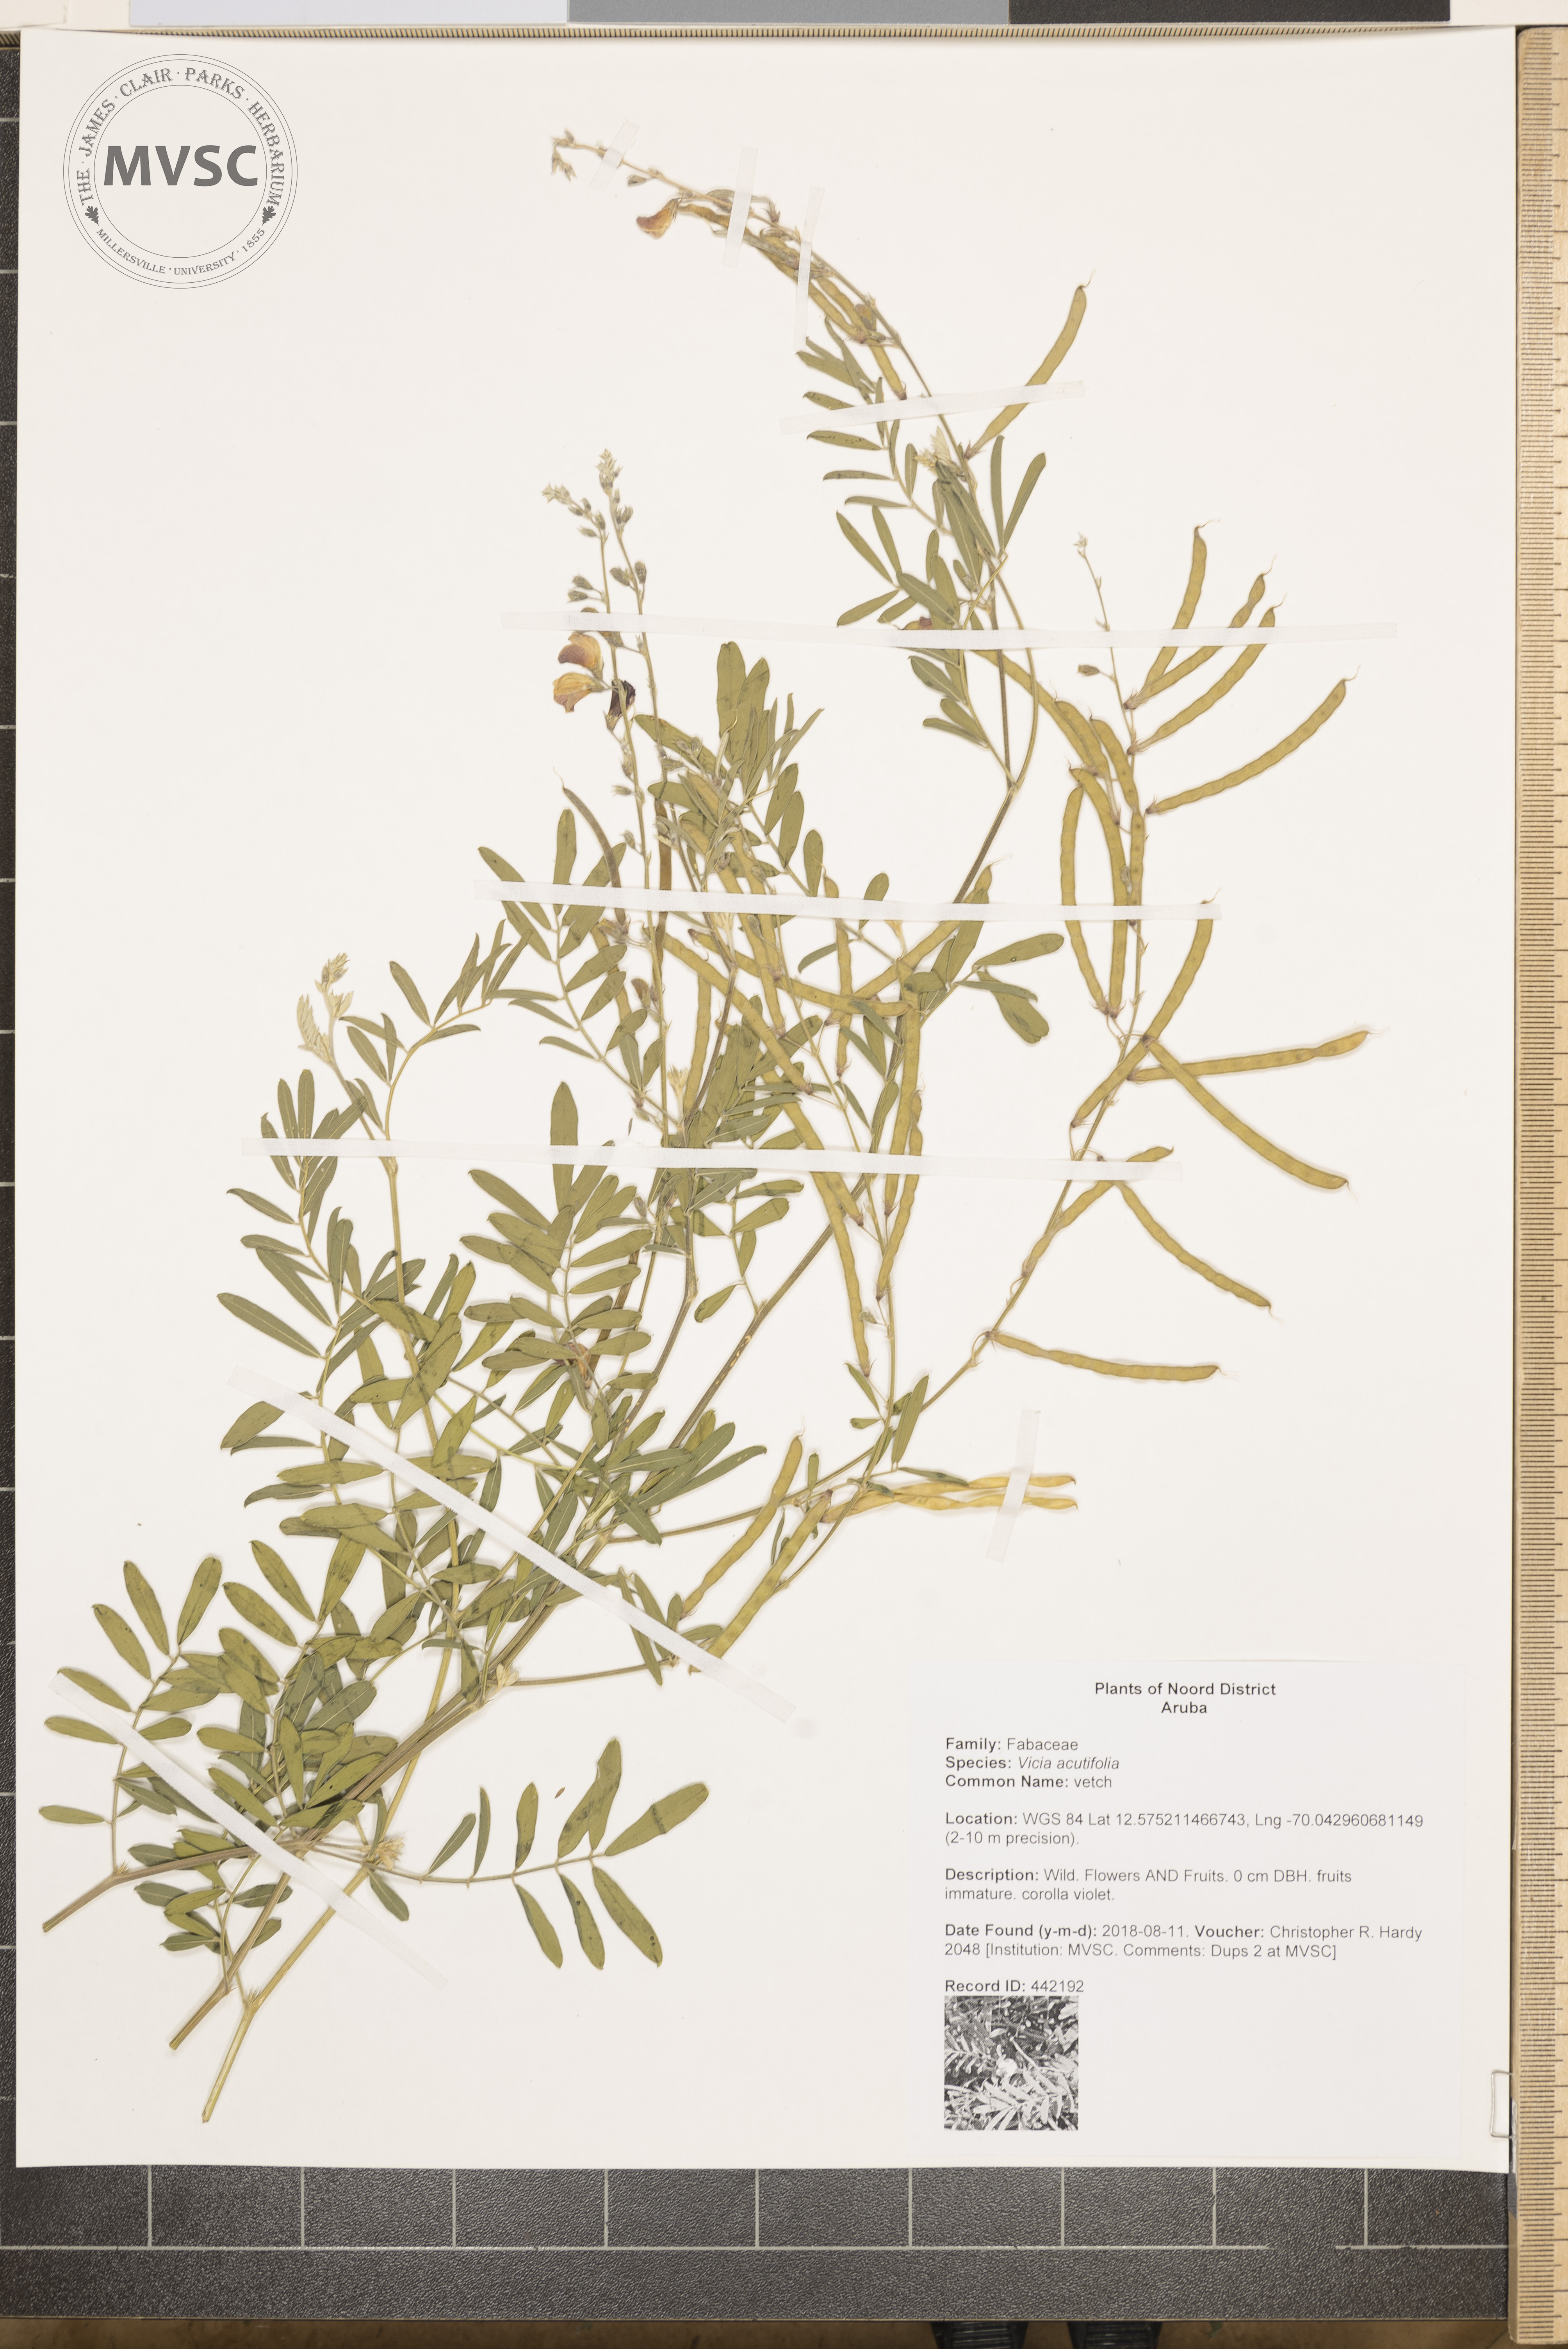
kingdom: Plantae
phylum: Tracheophyta
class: Magnoliopsida
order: Fabales
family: Fabaceae
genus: Vicia
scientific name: Vicia acutifolia
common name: vetch
